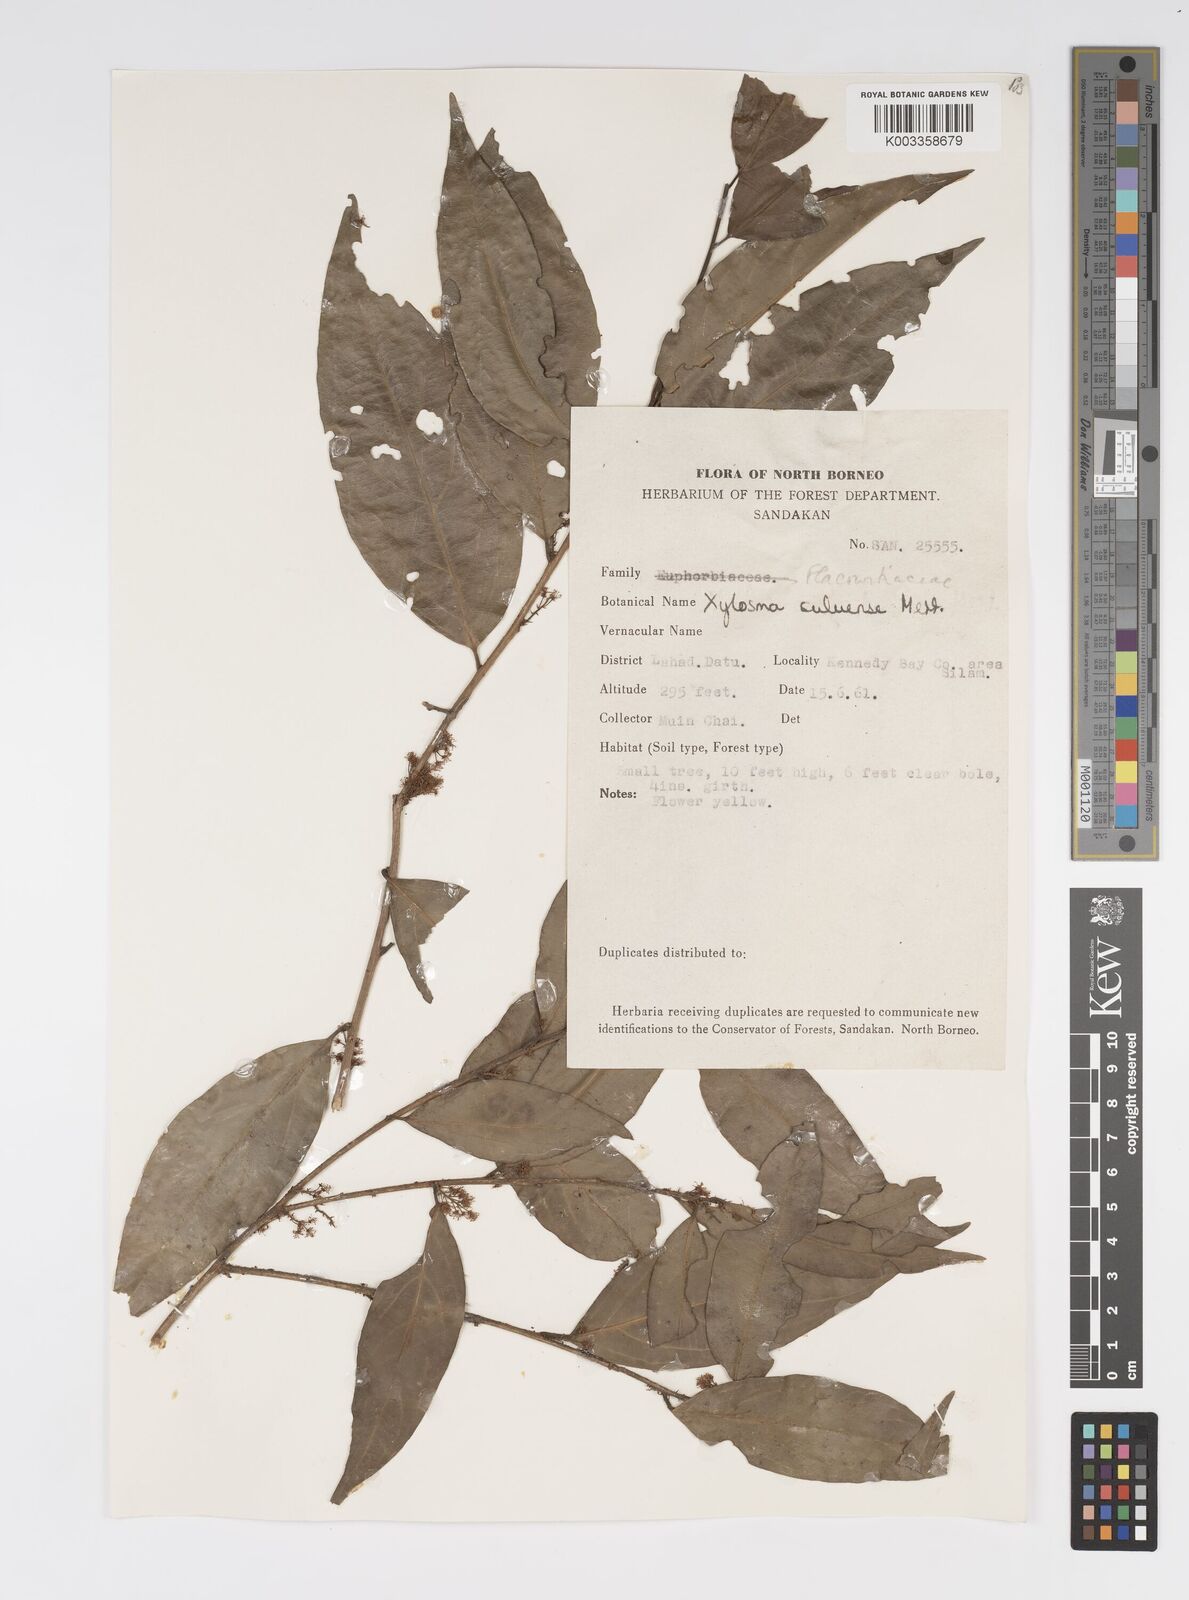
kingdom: Plantae
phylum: Tracheophyta
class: Magnoliopsida
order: Malpighiales
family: Salicaceae
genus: Xylosma
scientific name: Xylosma suluensis
